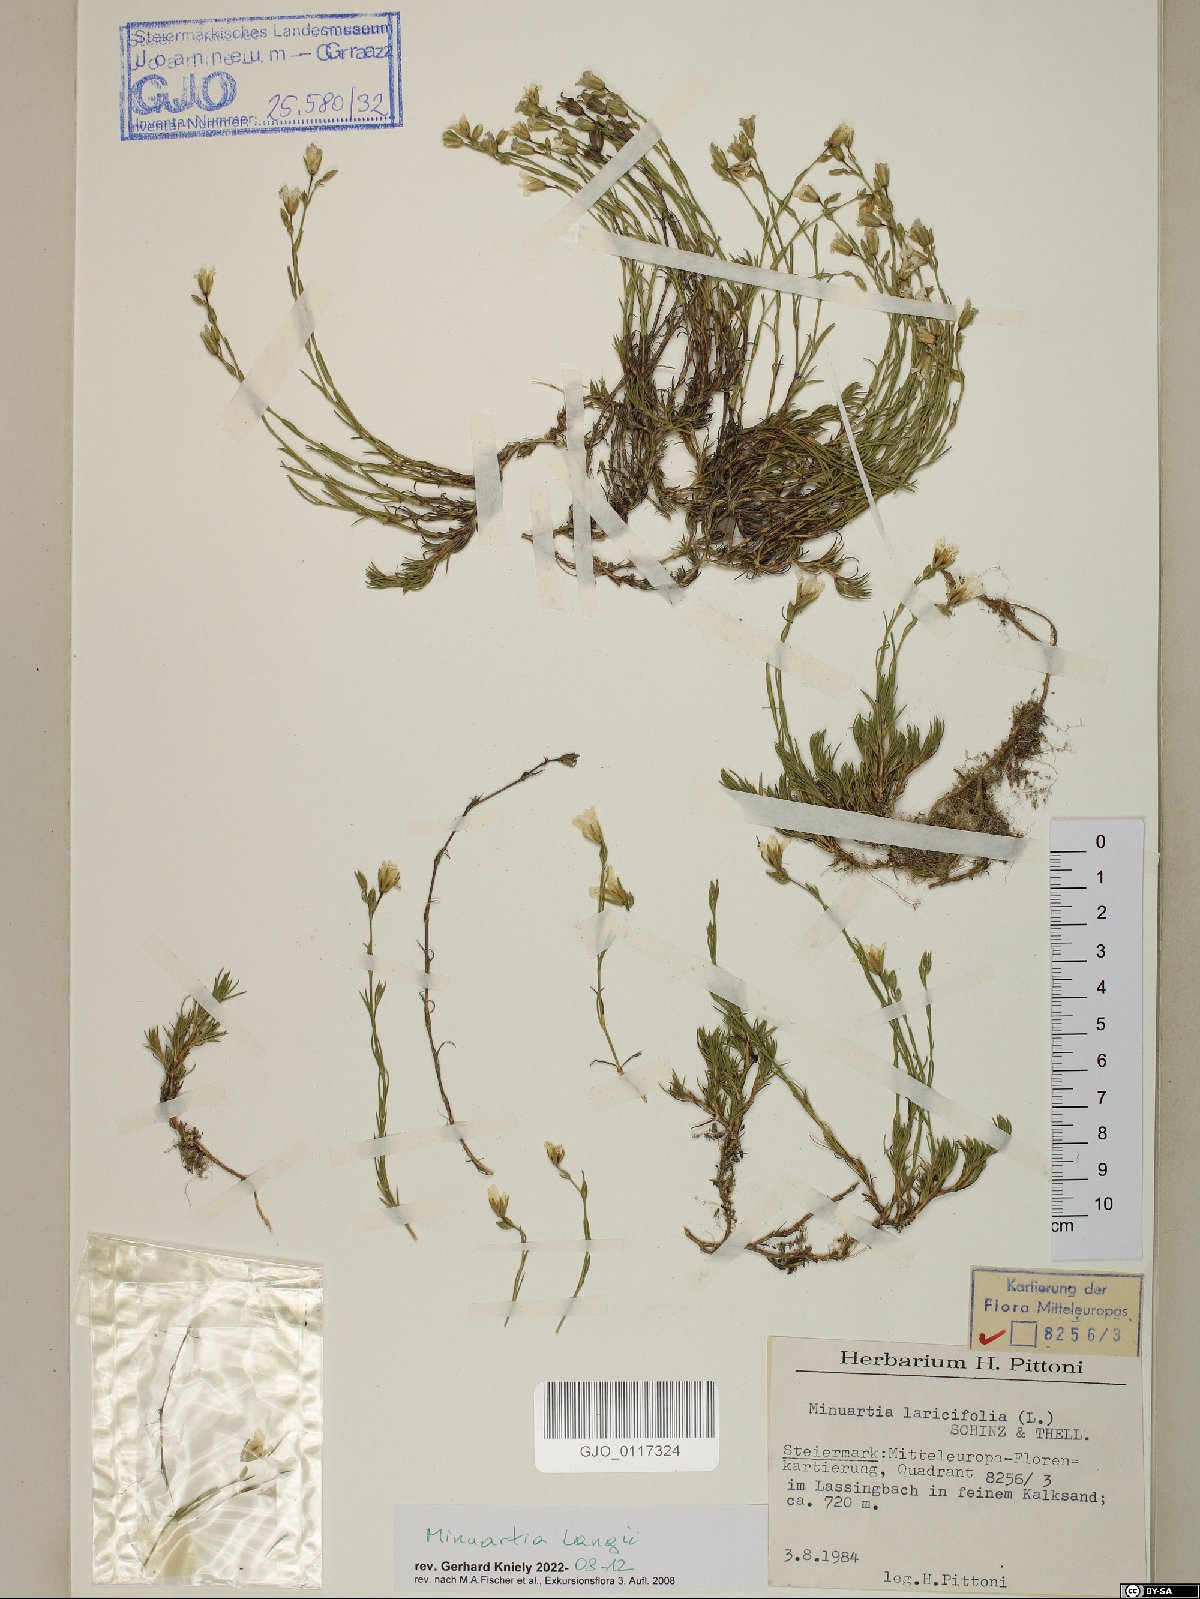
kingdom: Plantae
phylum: Tracheophyta
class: Magnoliopsida
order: Caryophyllales
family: Caryophyllaceae
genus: Cherleria
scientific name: Cherleria langii
